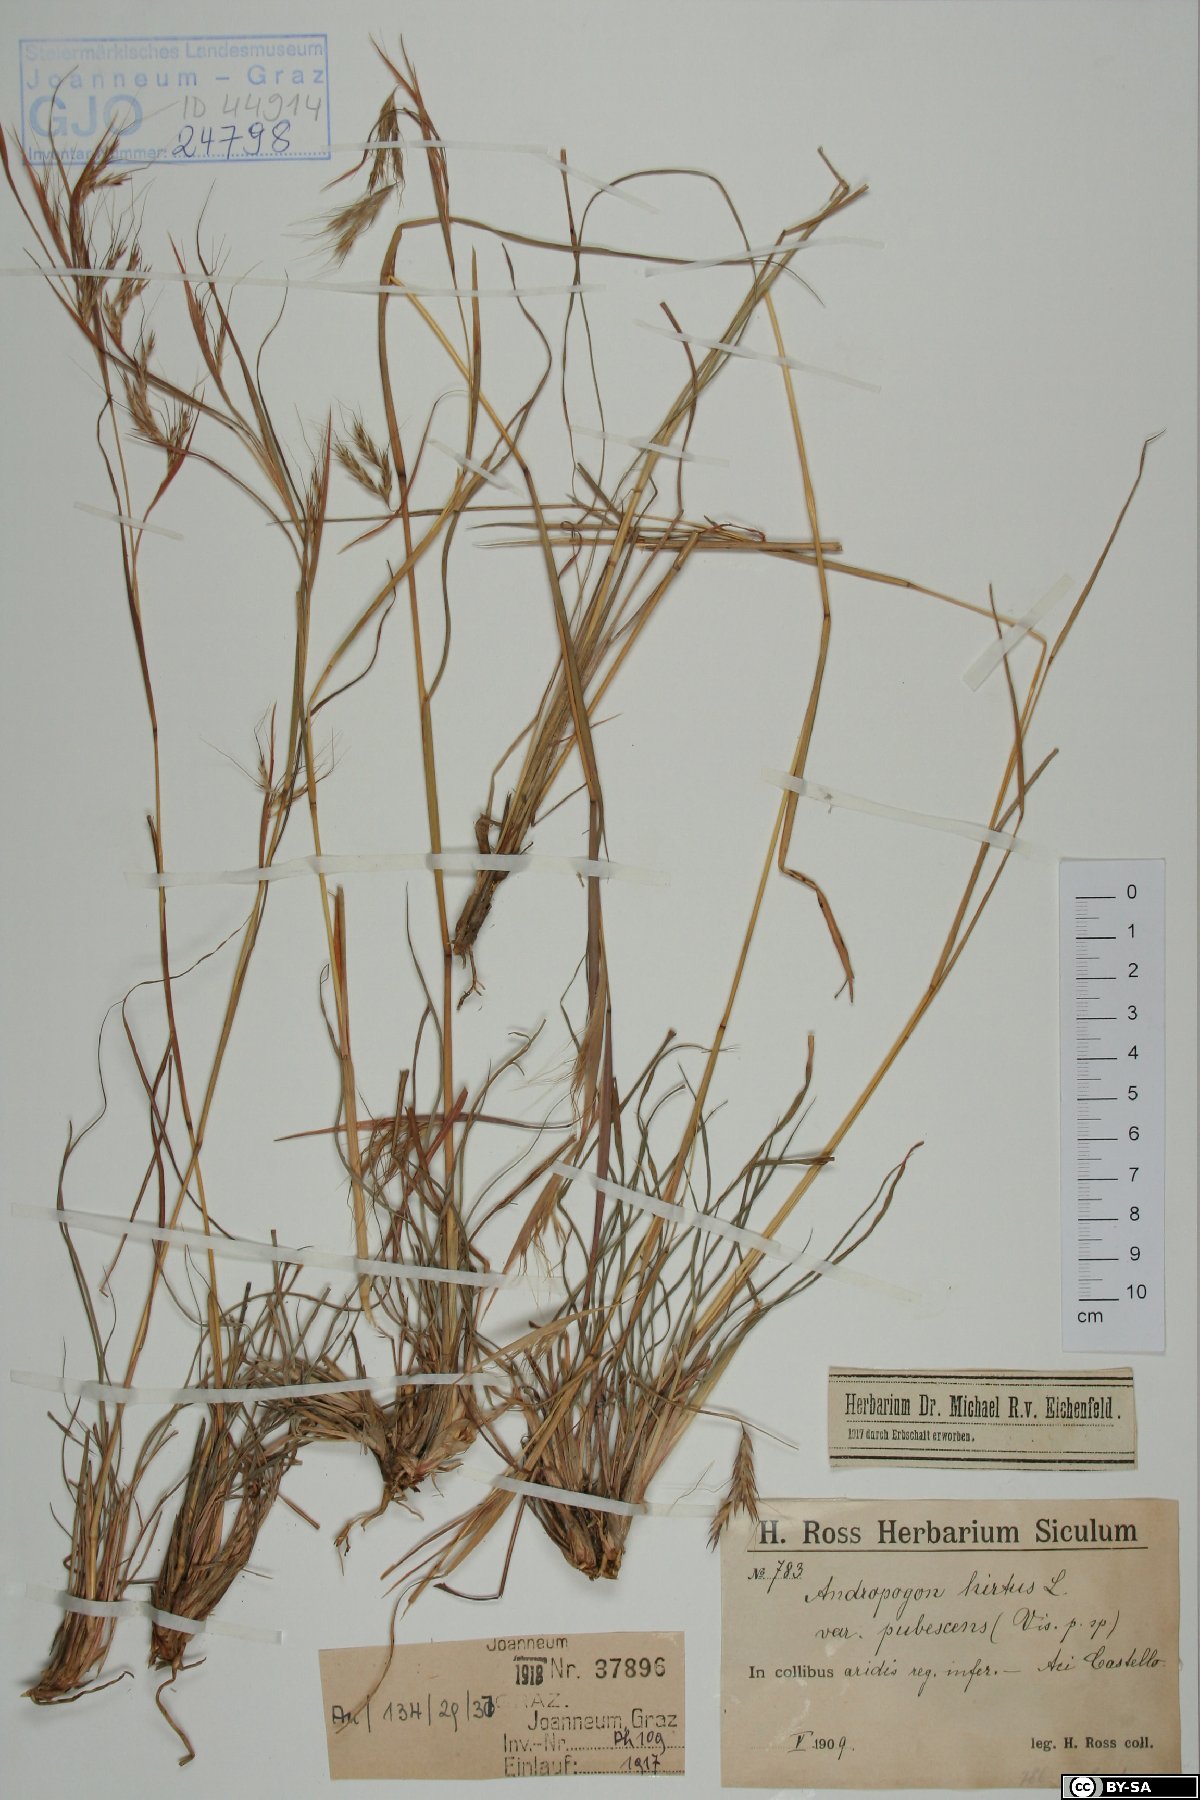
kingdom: Plantae
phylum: Tracheophyta
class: Liliopsida
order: Poales
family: Poaceae
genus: Hyparrhenia
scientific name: Hyparrhenia hirta
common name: Thatching grass
